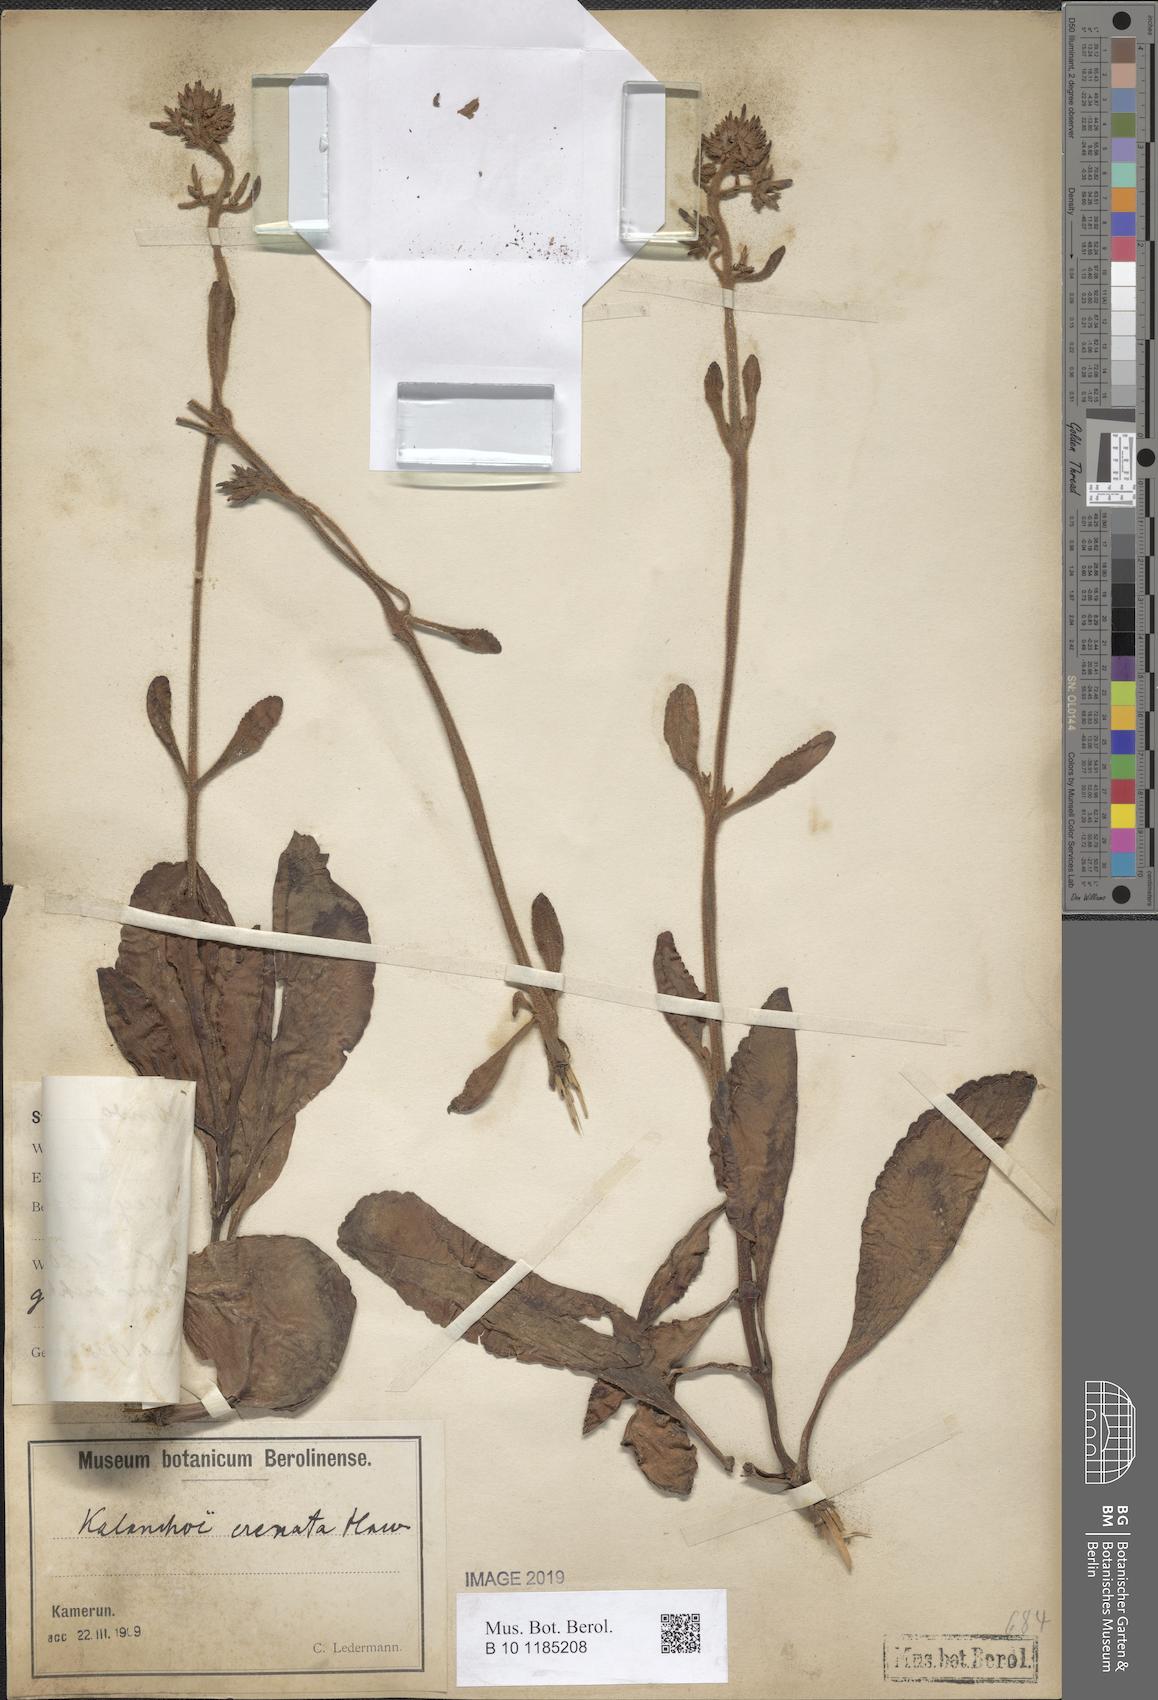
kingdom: Plantae
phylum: Tracheophyta
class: Magnoliopsida
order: Saxifragales
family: Crassulaceae
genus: Kalanchoe
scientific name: Kalanchoe crenata
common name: Neverdie
